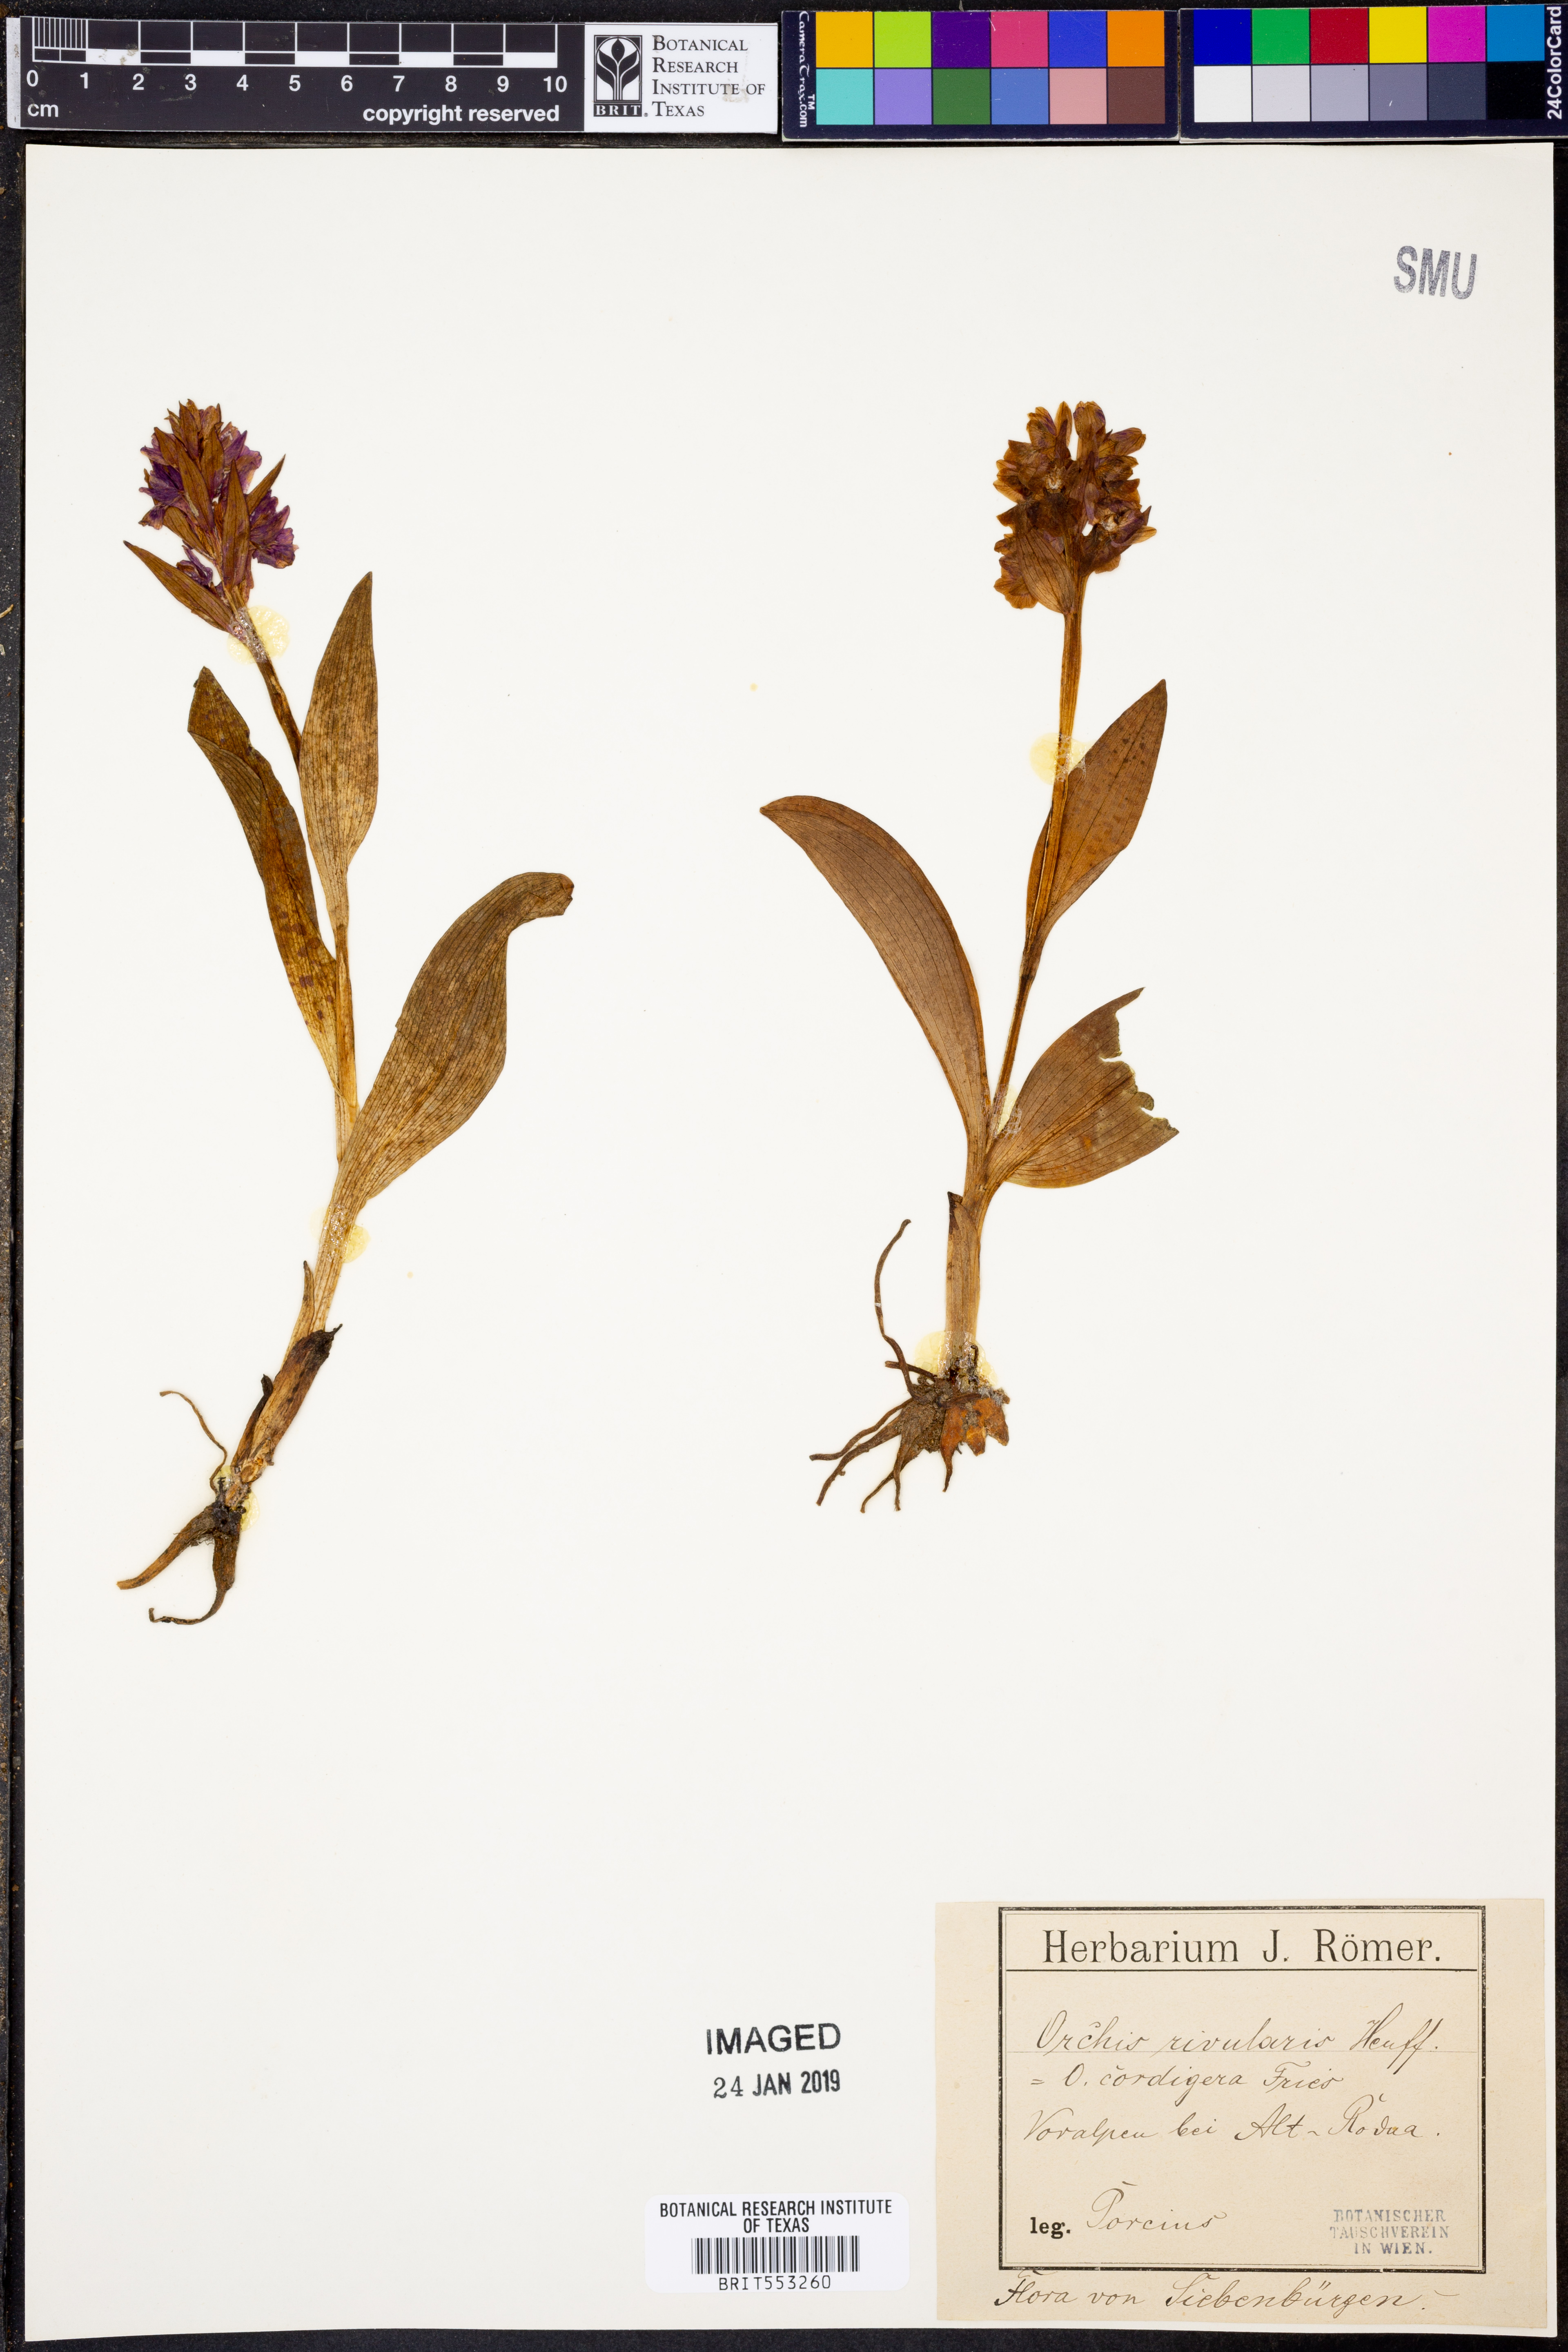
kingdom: Plantae
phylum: Tracheophyta
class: Liliopsida
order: Asparagales
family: Orchidaceae
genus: Dactylorhiza
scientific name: Dactylorhiza majalis
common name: Marsh orchid
